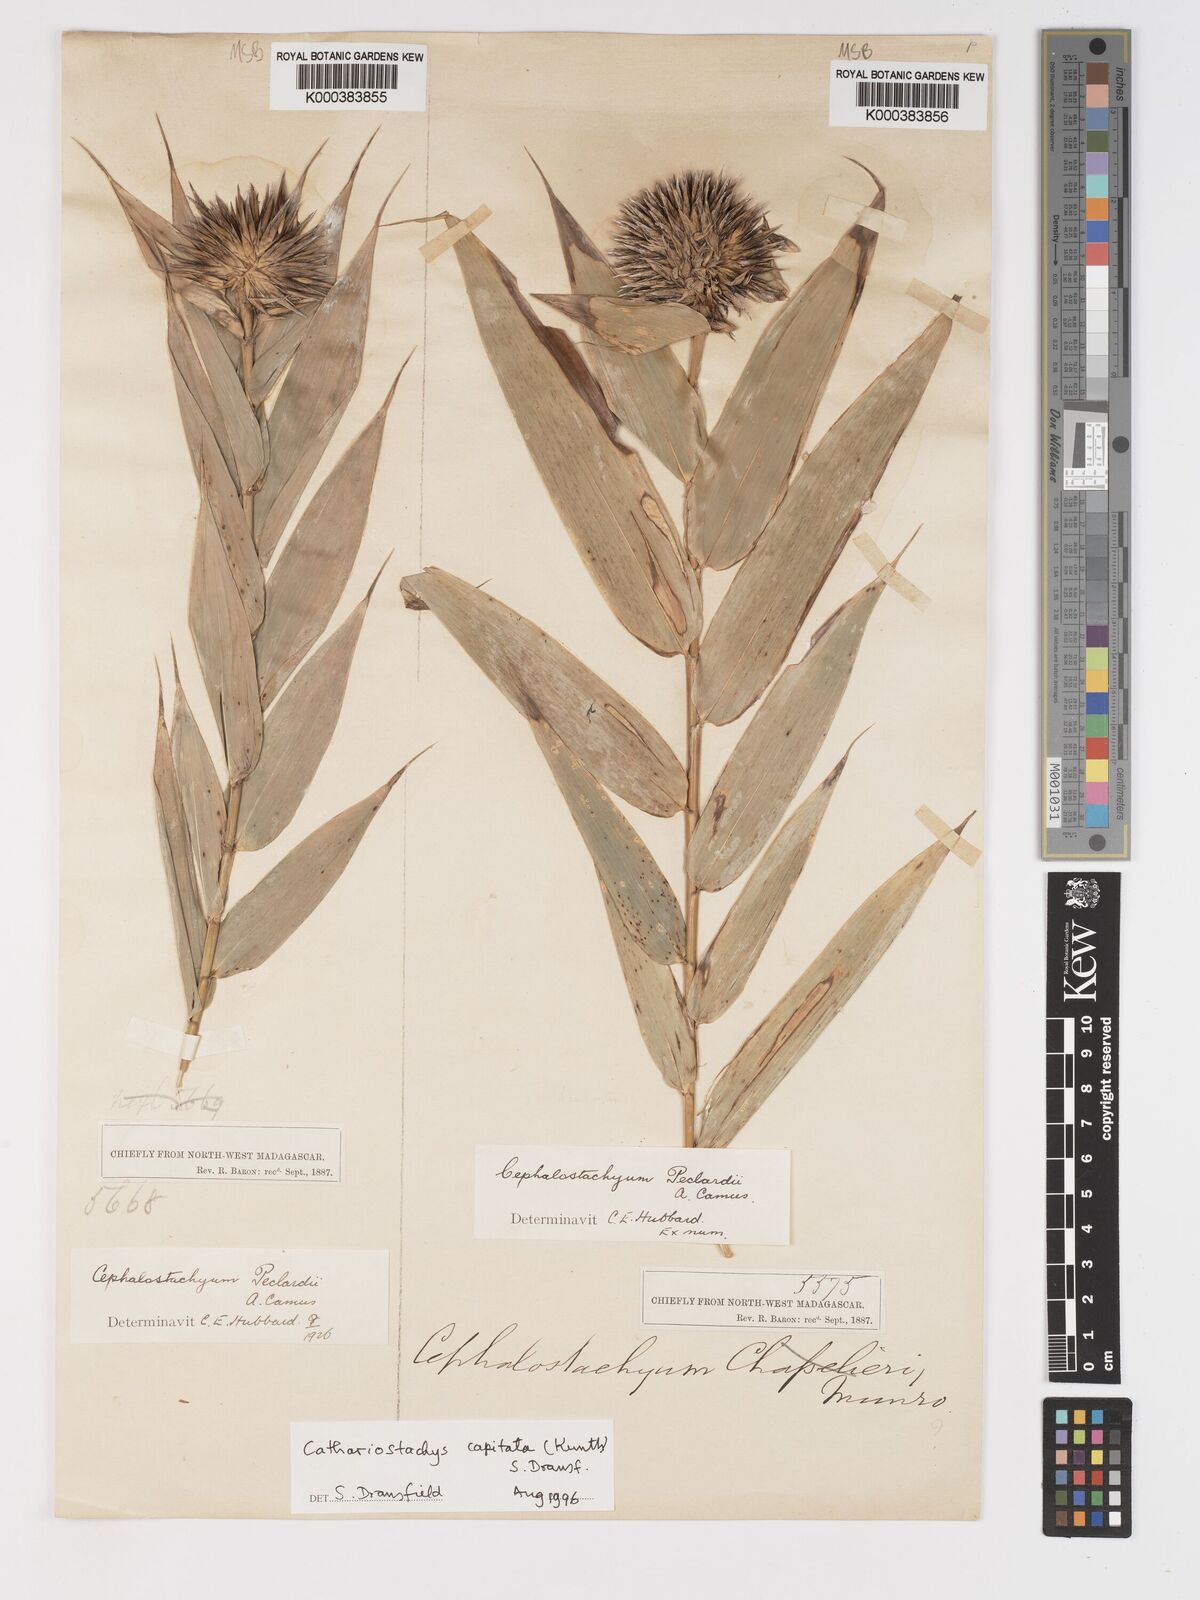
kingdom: Plantae
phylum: Tracheophyta
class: Liliopsida
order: Poales
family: Poaceae
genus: Cathariostachys
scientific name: Cathariostachys capitata
